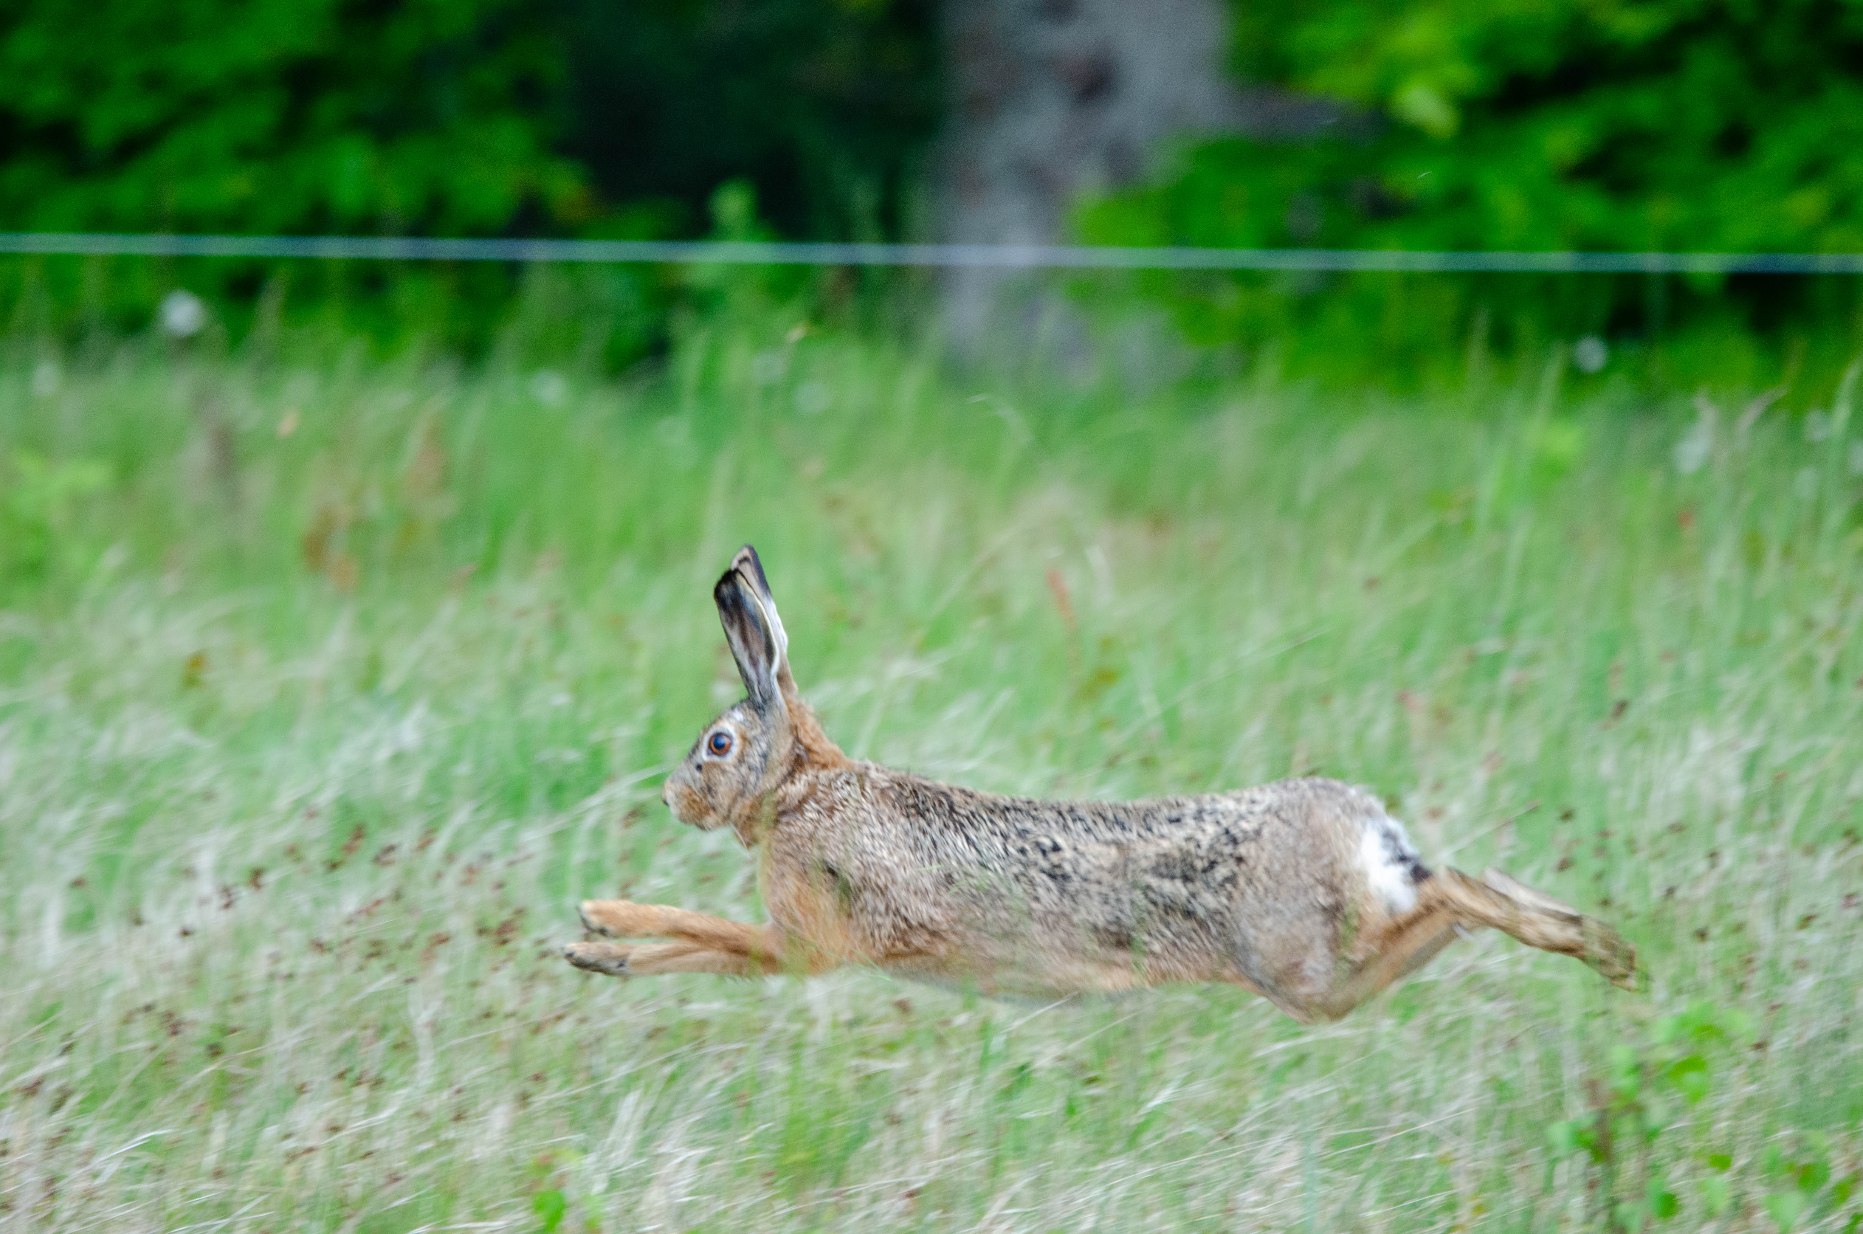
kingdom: Animalia
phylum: Chordata
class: Mammalia
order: Lagomorpha
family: Leporidae
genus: Lepus
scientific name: Lepus europaeus
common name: Hare
